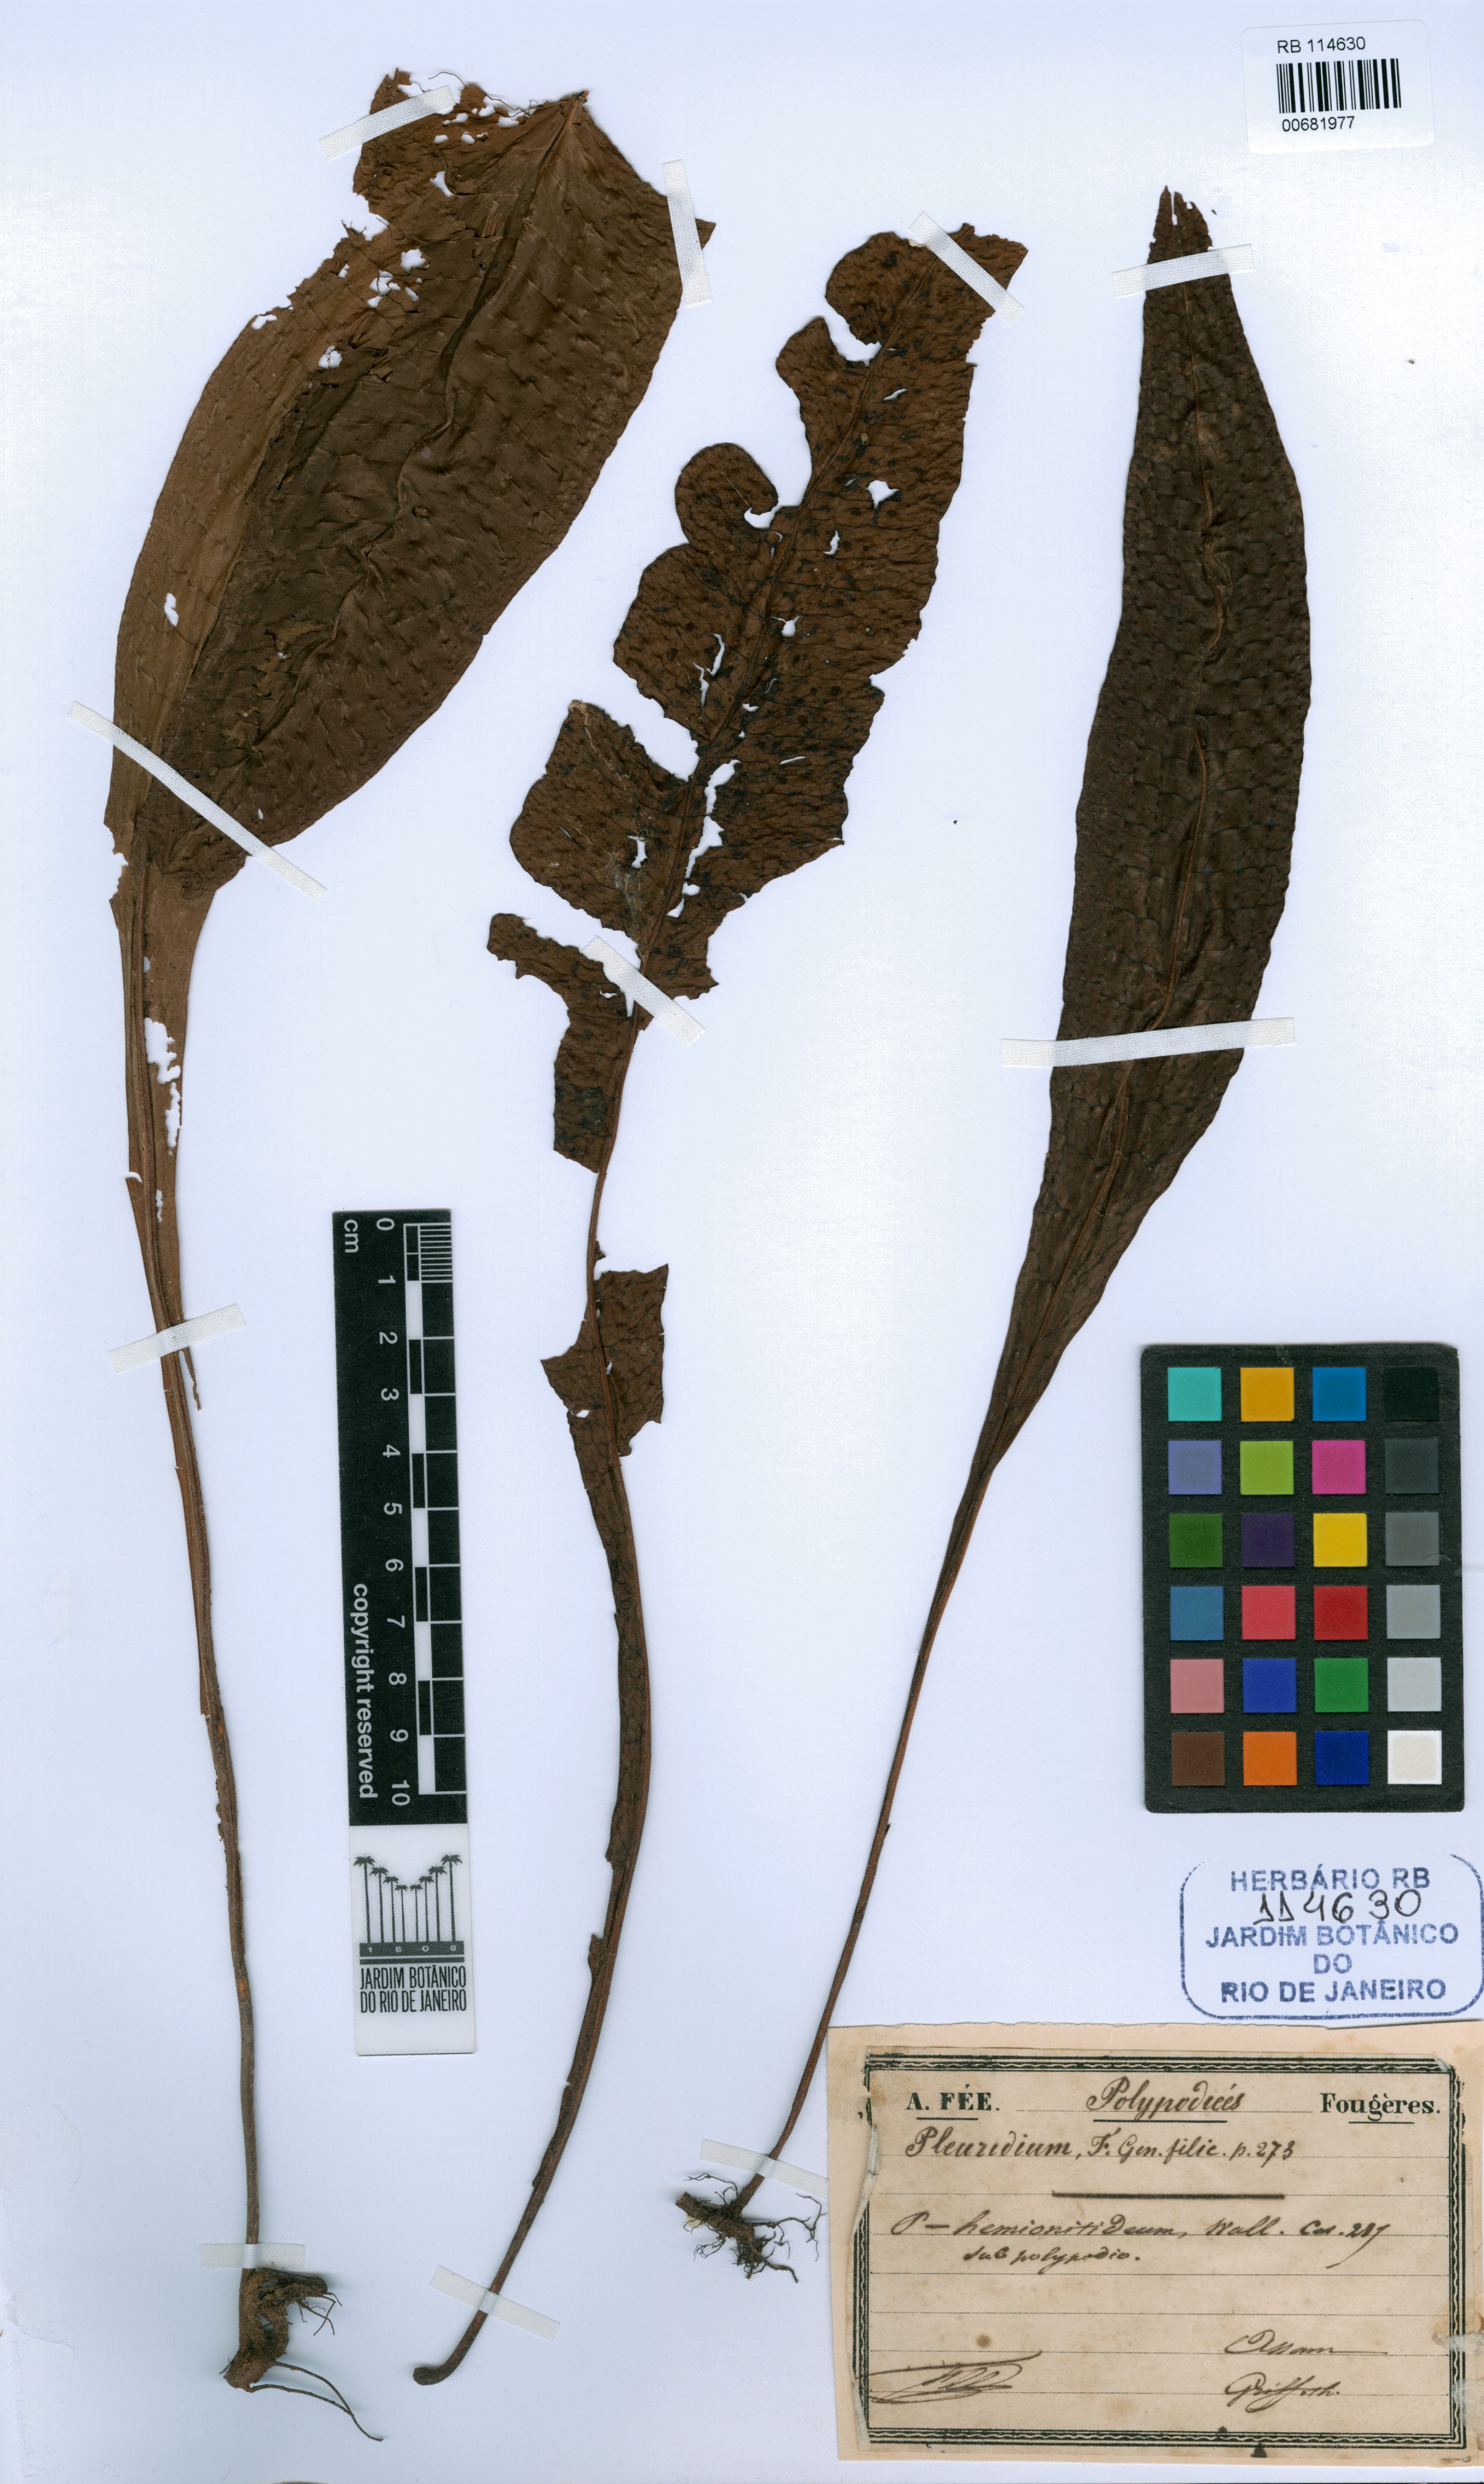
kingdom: Plantae
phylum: Bryophyta
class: Bryopsida
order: Dicranales
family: Ditrichaceae
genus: Pleuridium
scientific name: Pleuridium
